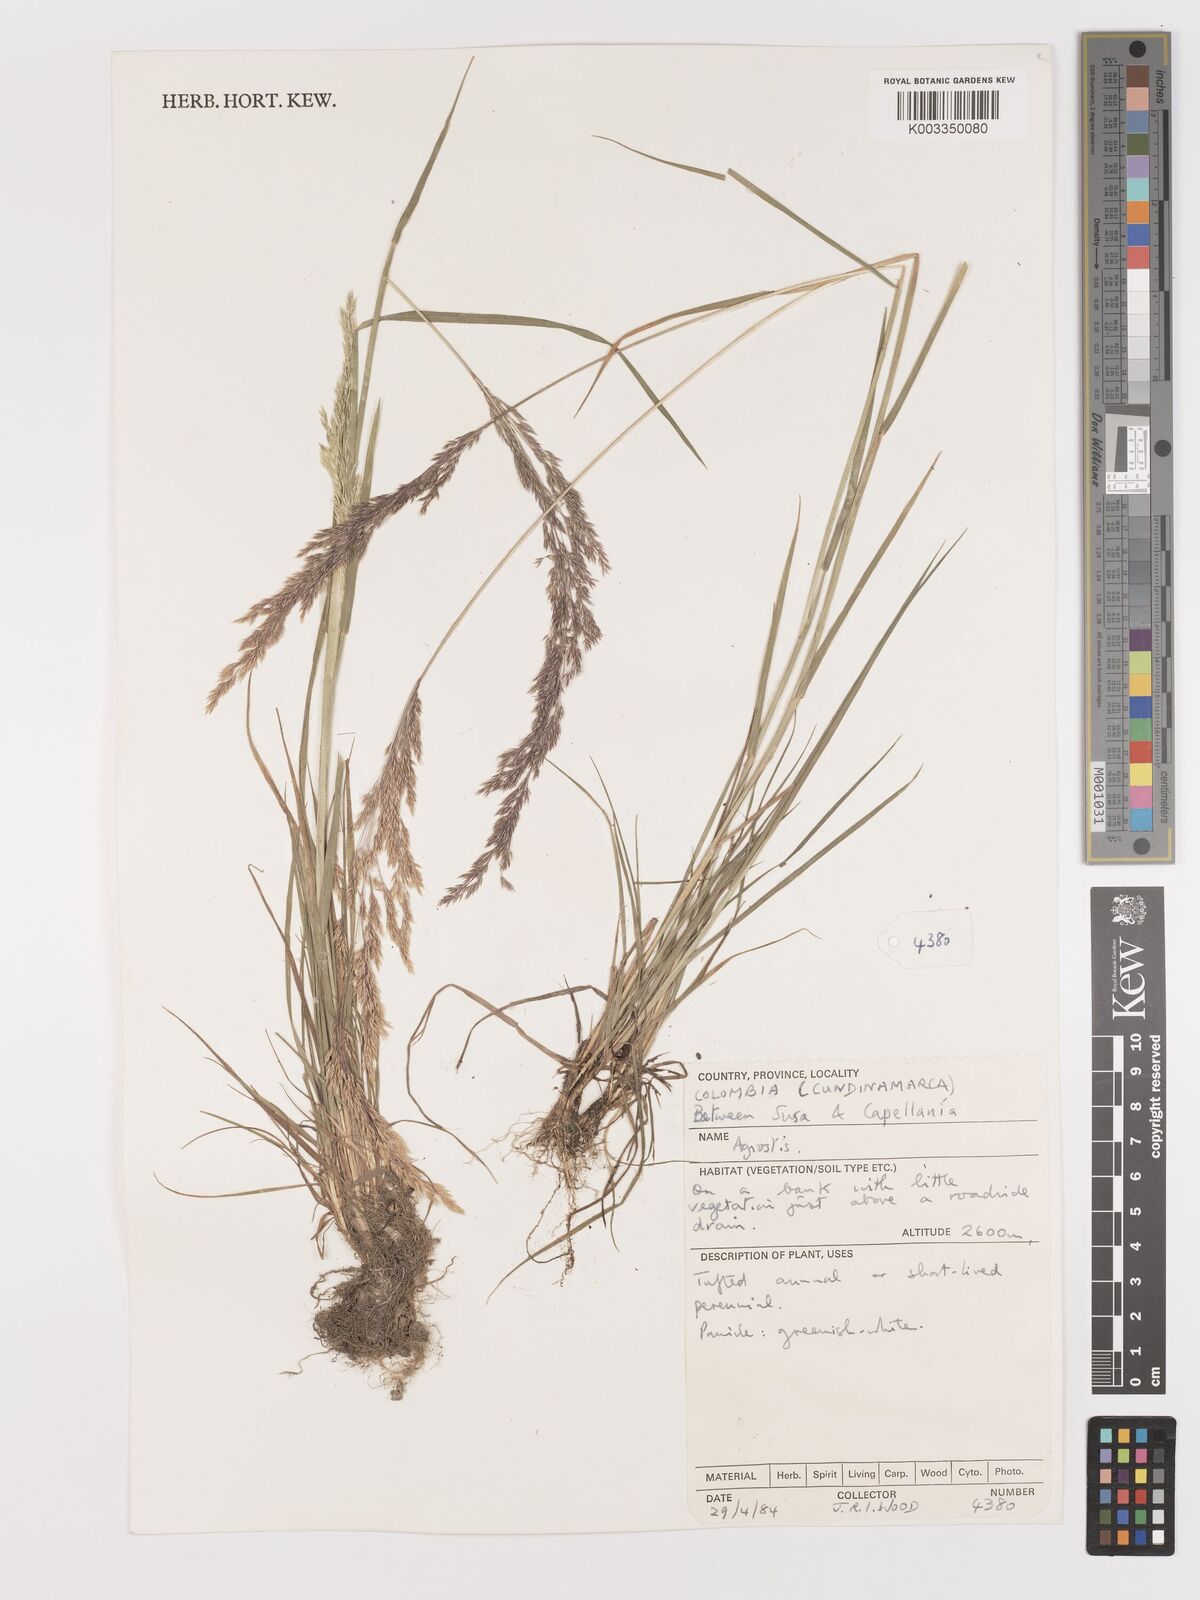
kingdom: Plantae
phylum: Tracheophyta
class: Liliopsida
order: Poales
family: Poaceae
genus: Agrostis
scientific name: Agrostis
